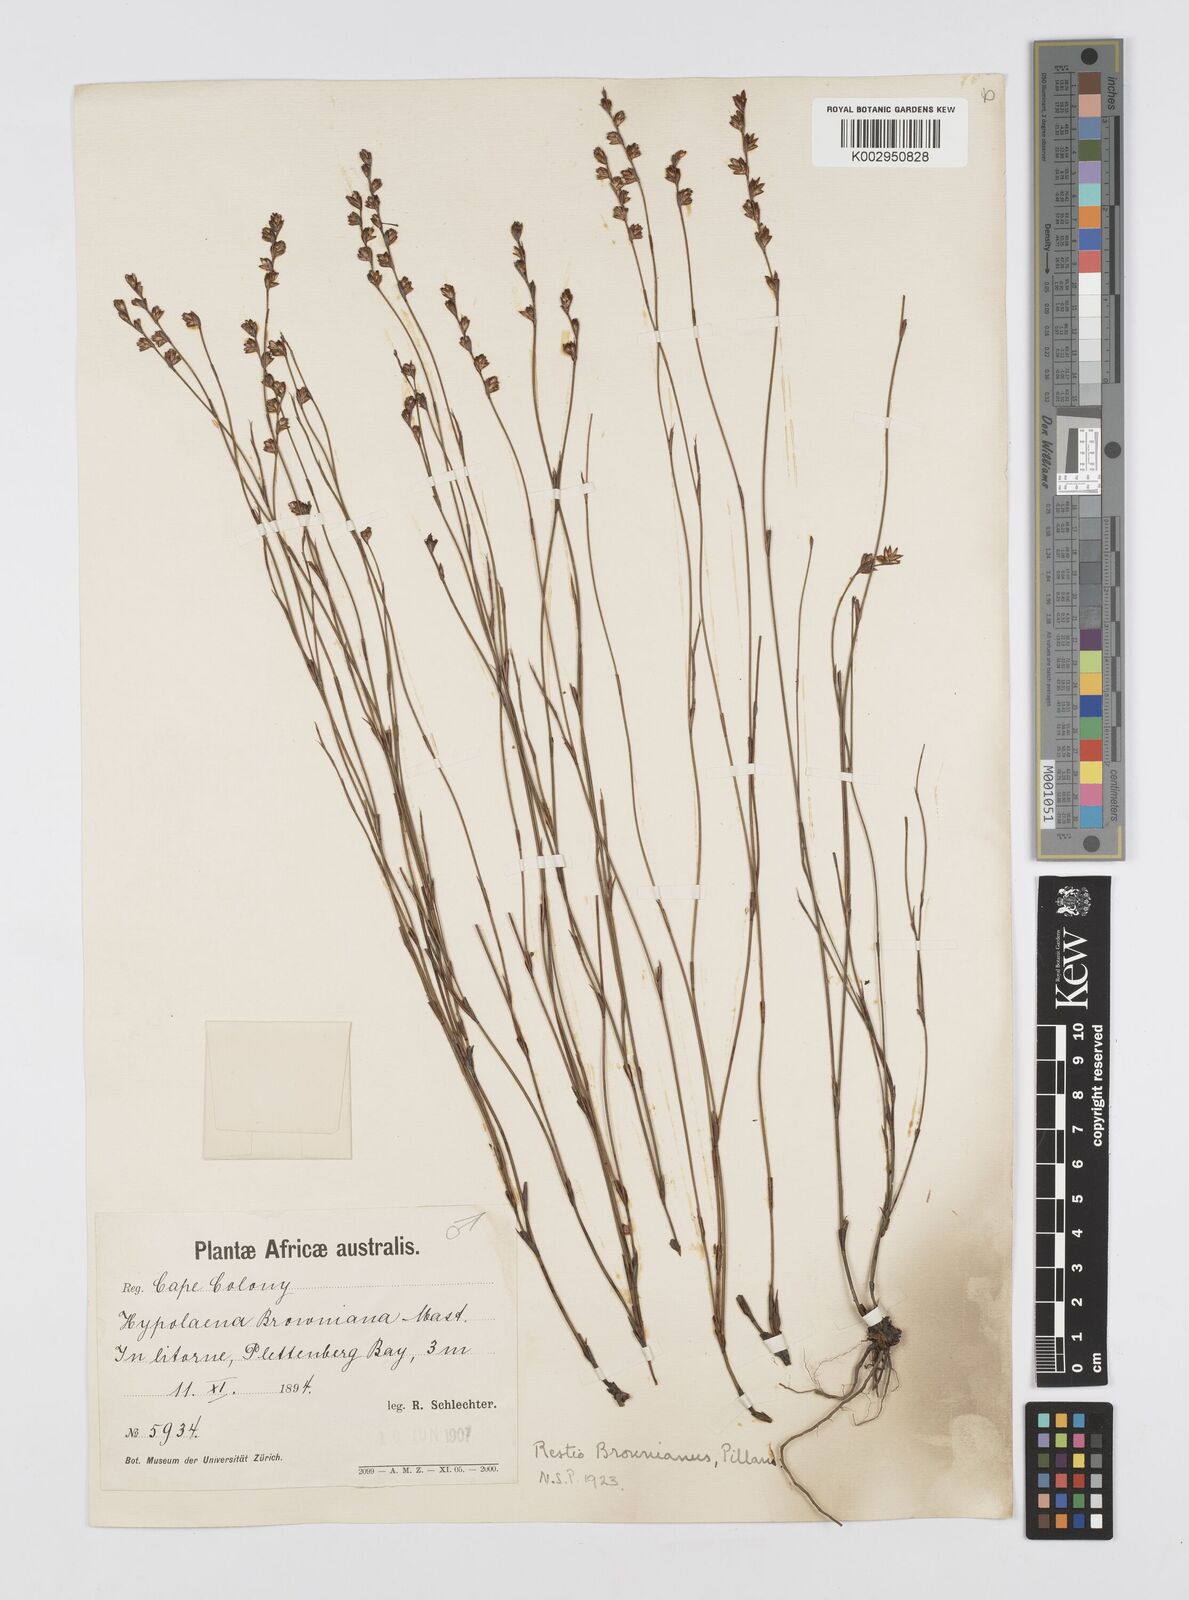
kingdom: Plantae
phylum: Tracheophyta
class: Liliopsida
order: Poales
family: Restionaceae
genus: Restio
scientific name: Restio debilis
